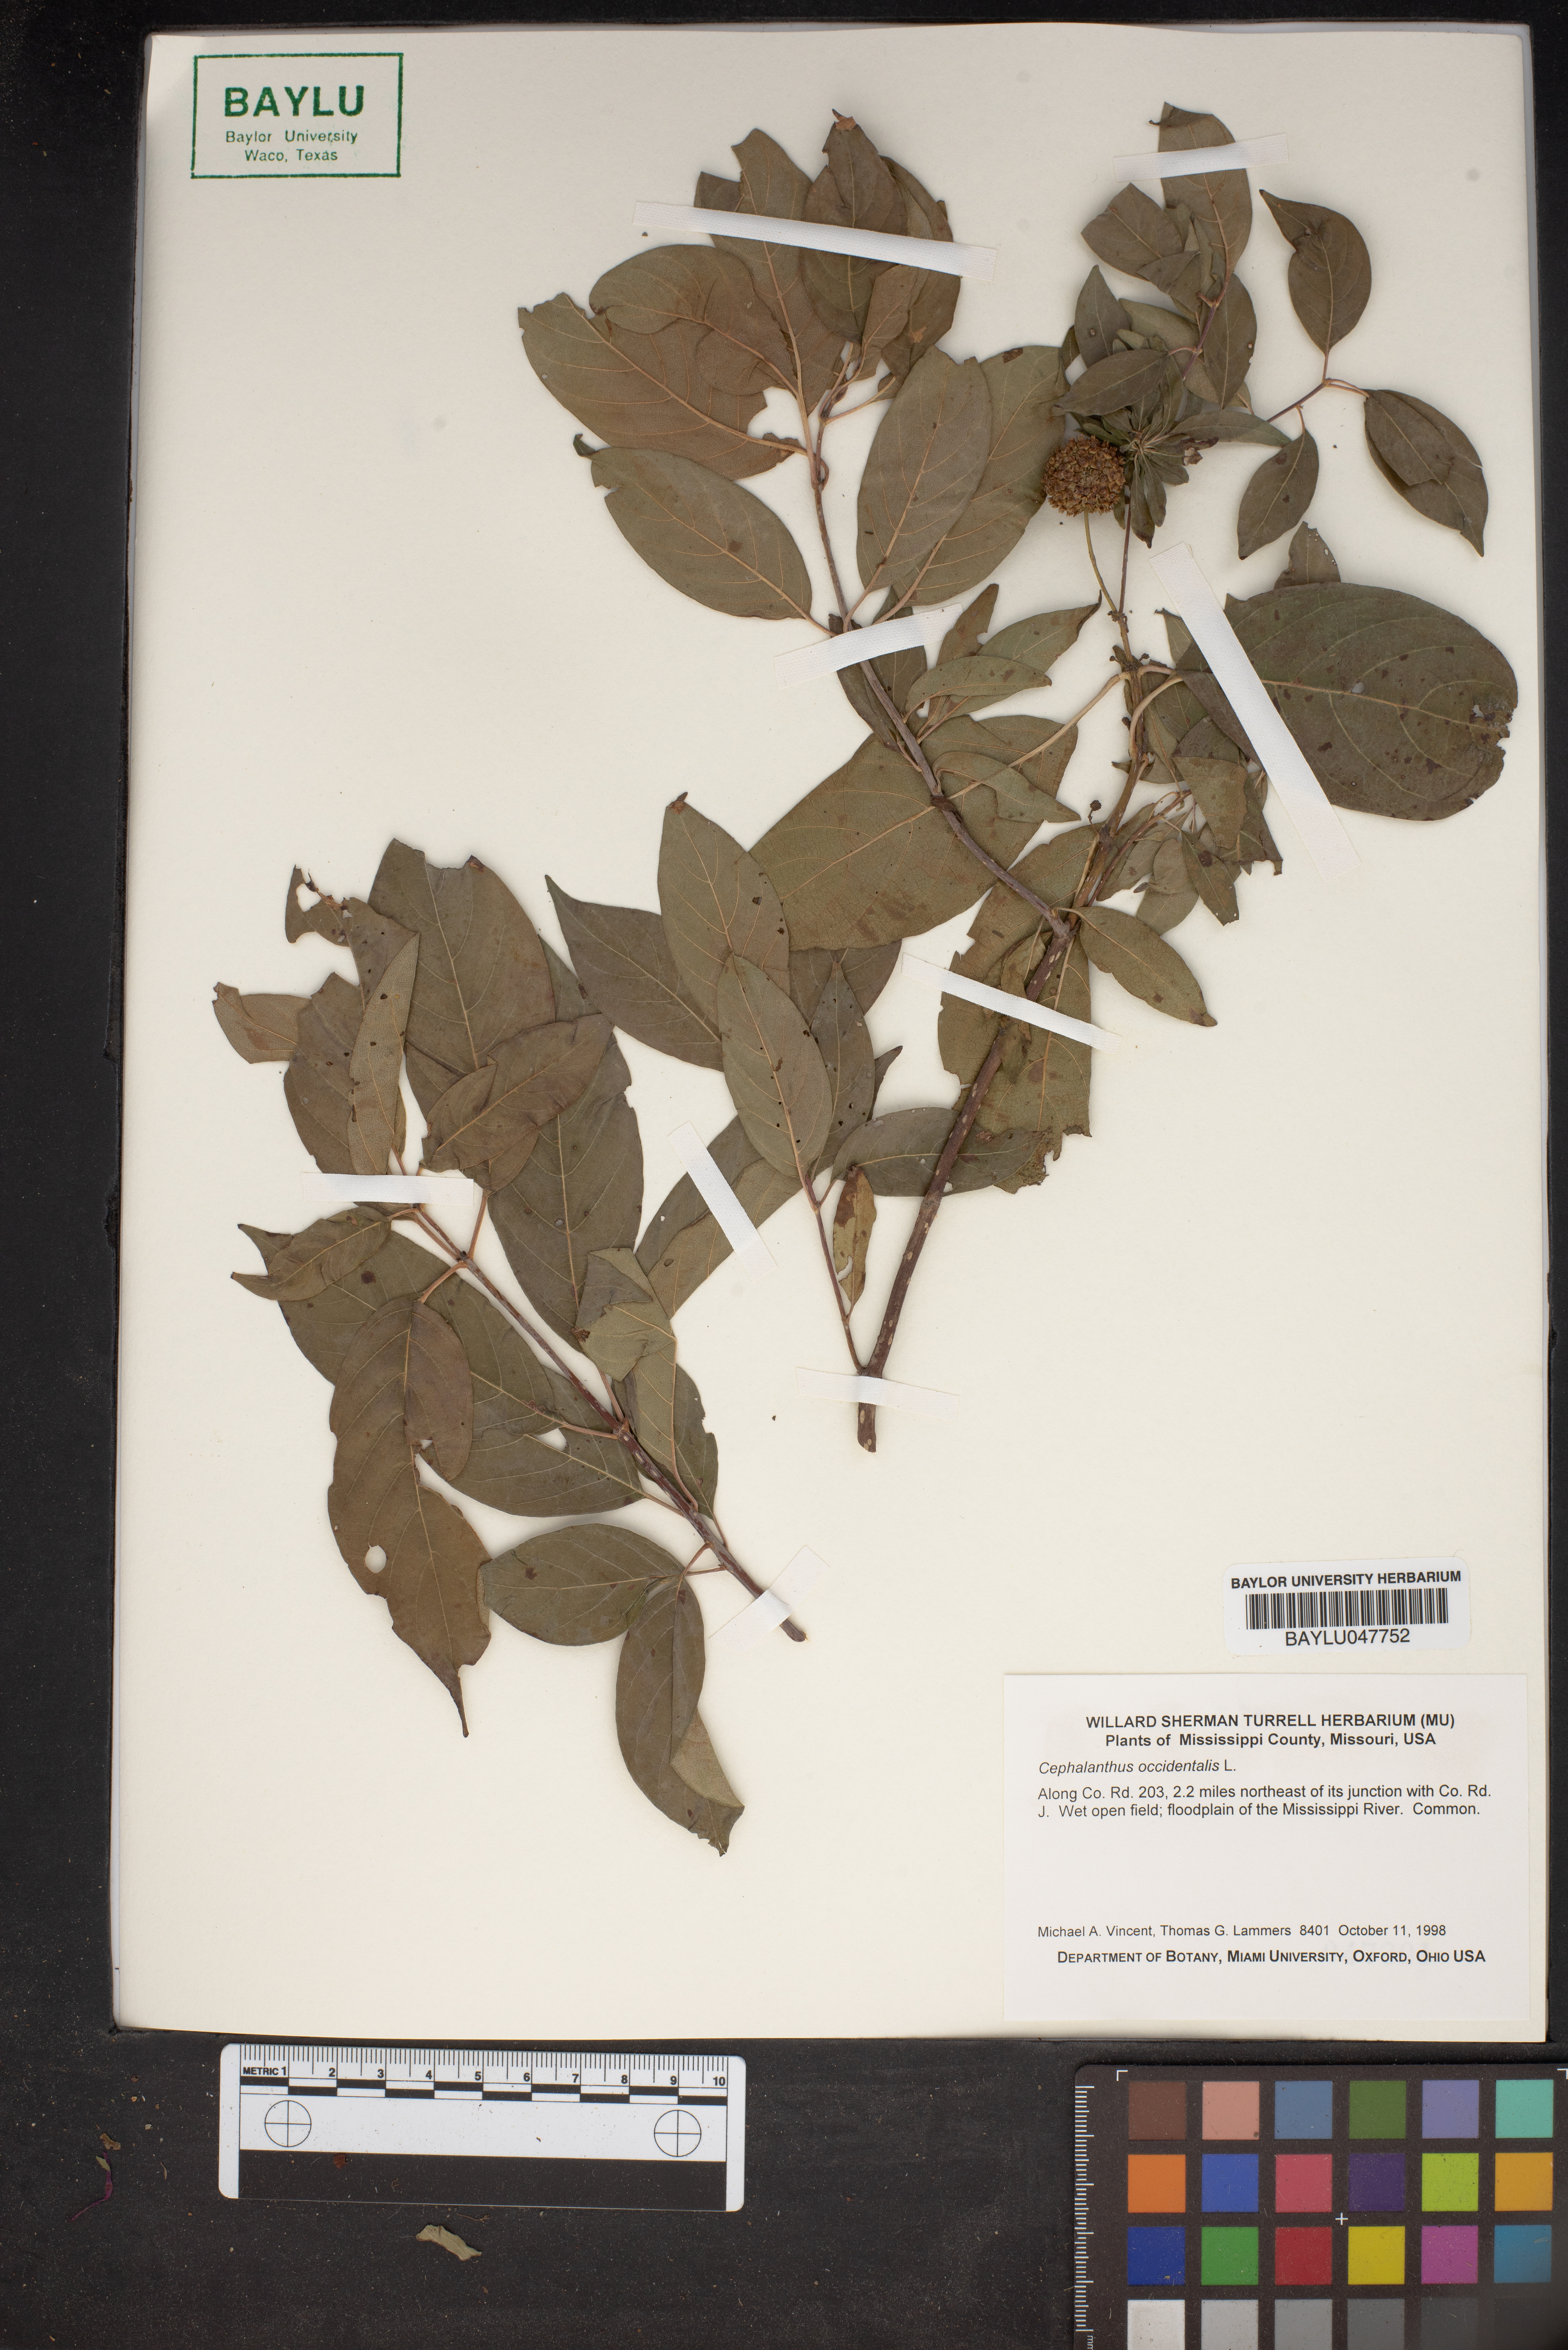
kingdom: Plantae
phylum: Tracheophyta
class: Magnoliopsida
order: Gentianales
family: Rubiaceae
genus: Cephalanthus
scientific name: Cephalanthus occidentalis
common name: Button-willow
